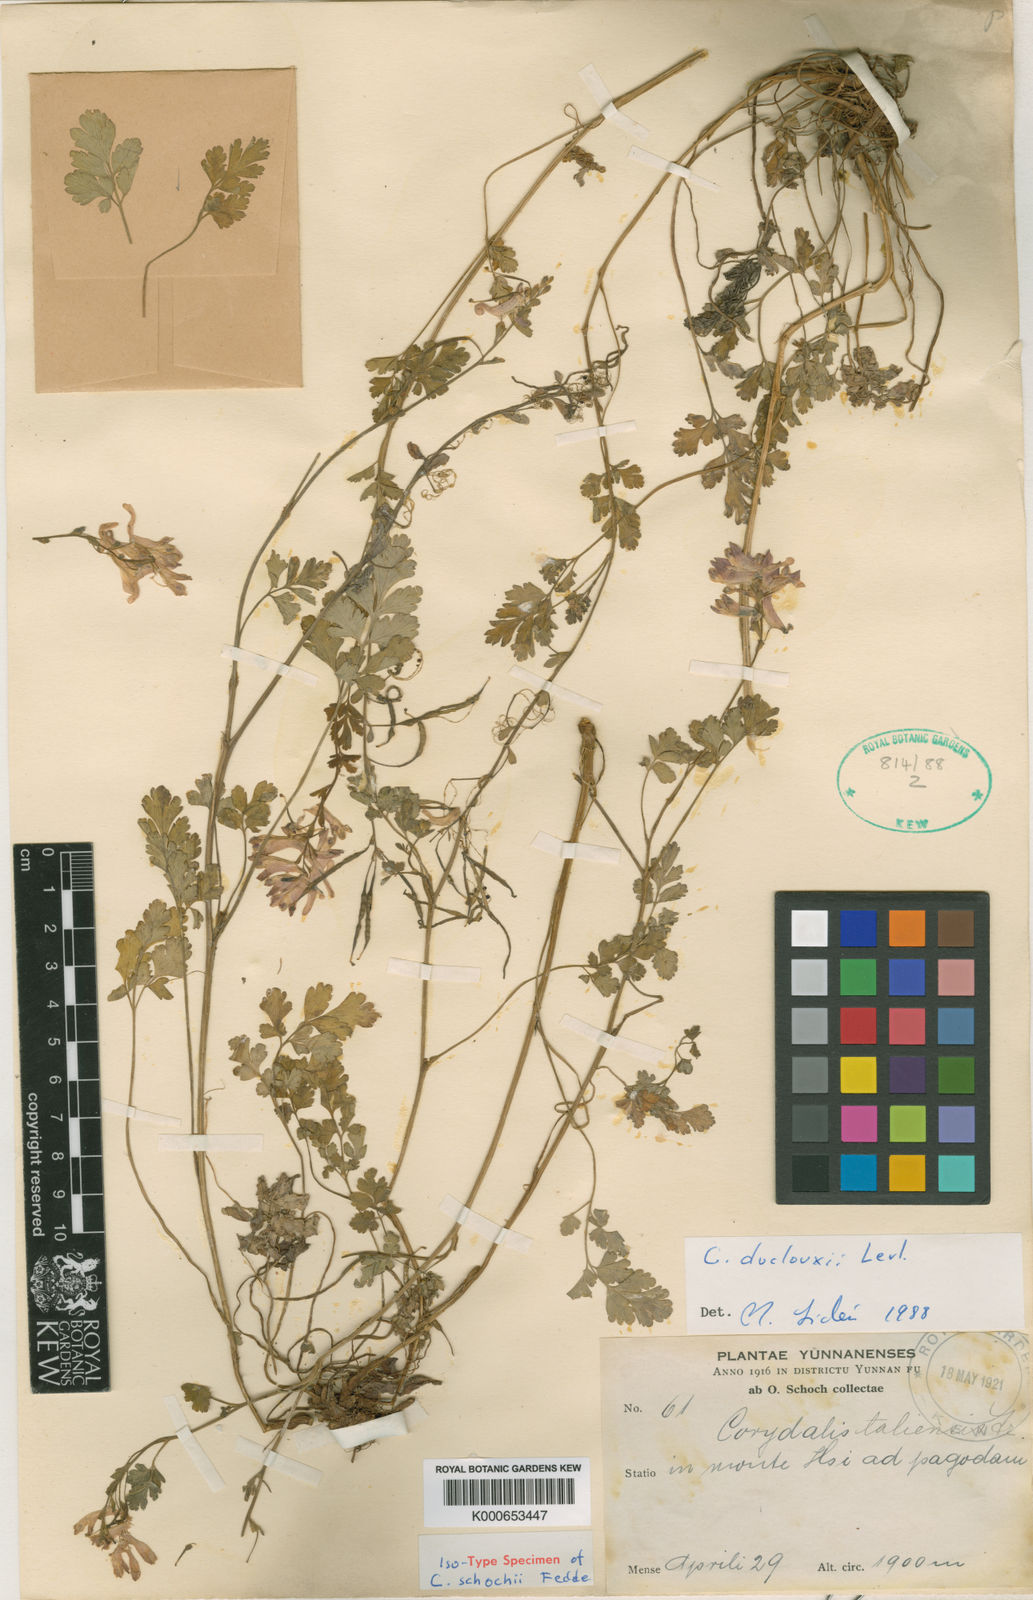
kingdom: Plantae
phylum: Tracheophyta
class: Magnoliopsida
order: Ranunculales
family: Papaveraceae
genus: Corydalis
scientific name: Corydalis
